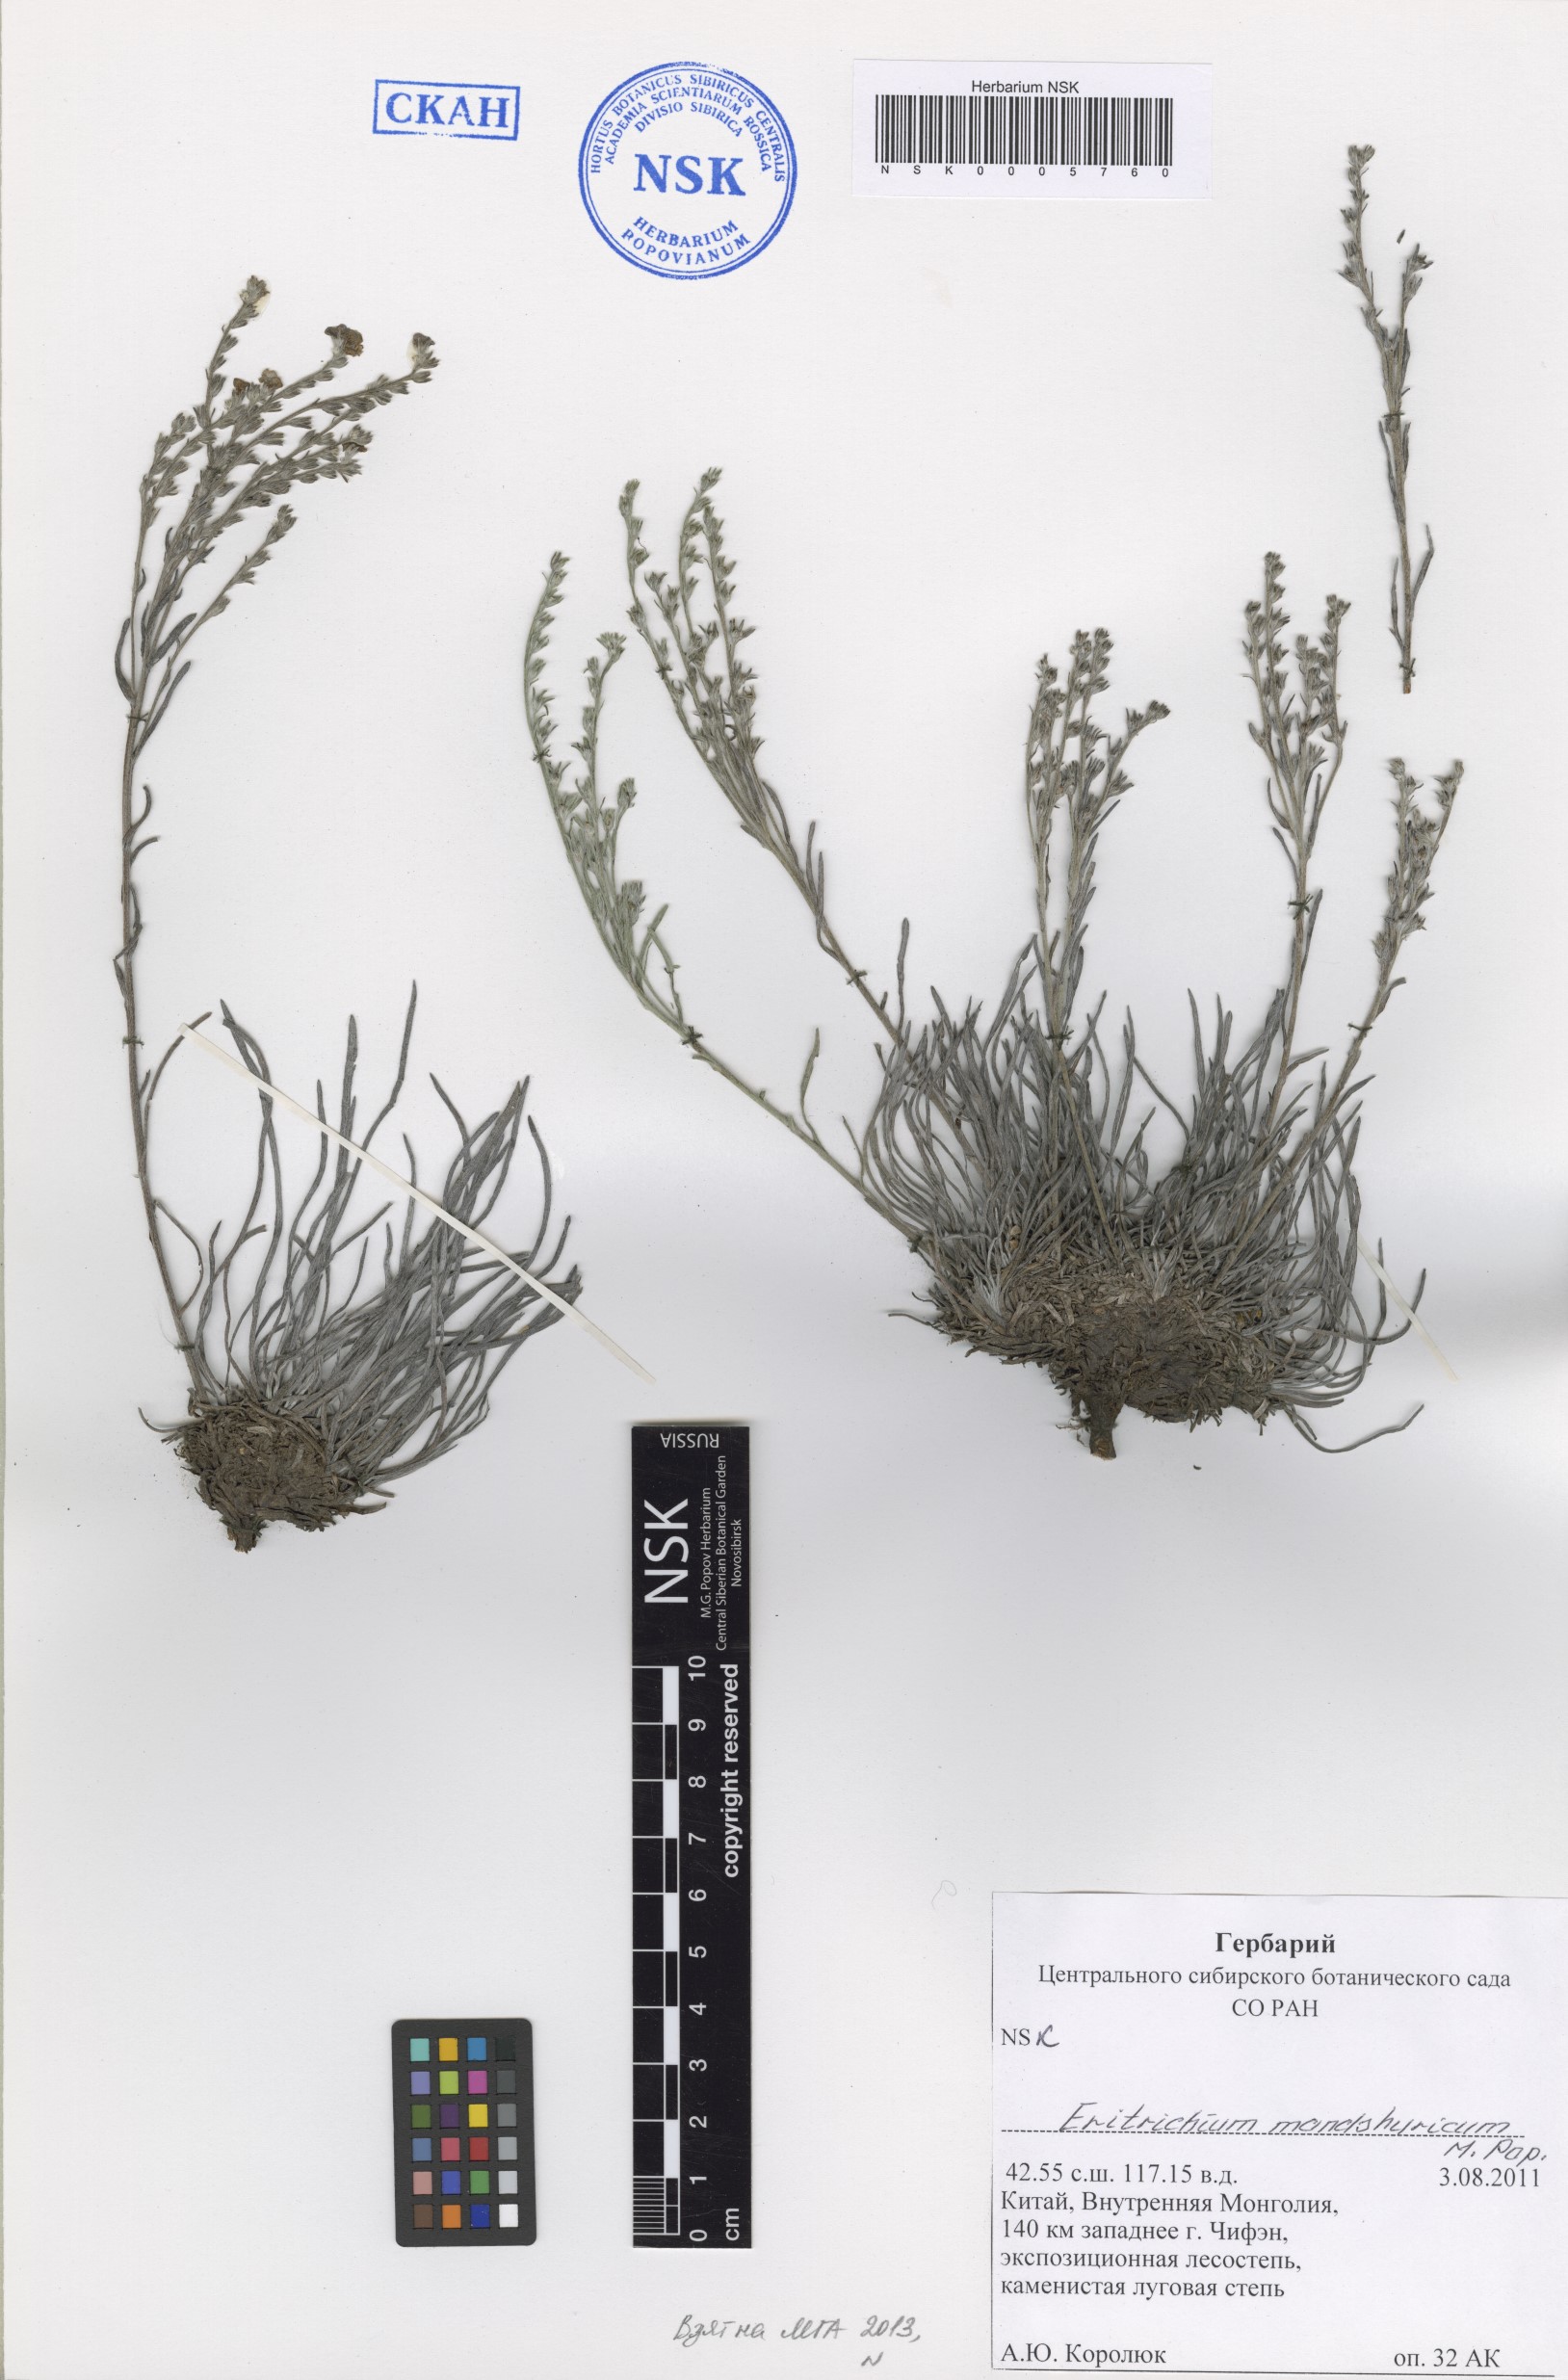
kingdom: Plantae
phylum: Tracheophyta
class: Magnoliopsida
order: Boraginales
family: Boraginaceae
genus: Eritrichium
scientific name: Eritrichium mandshuricum
